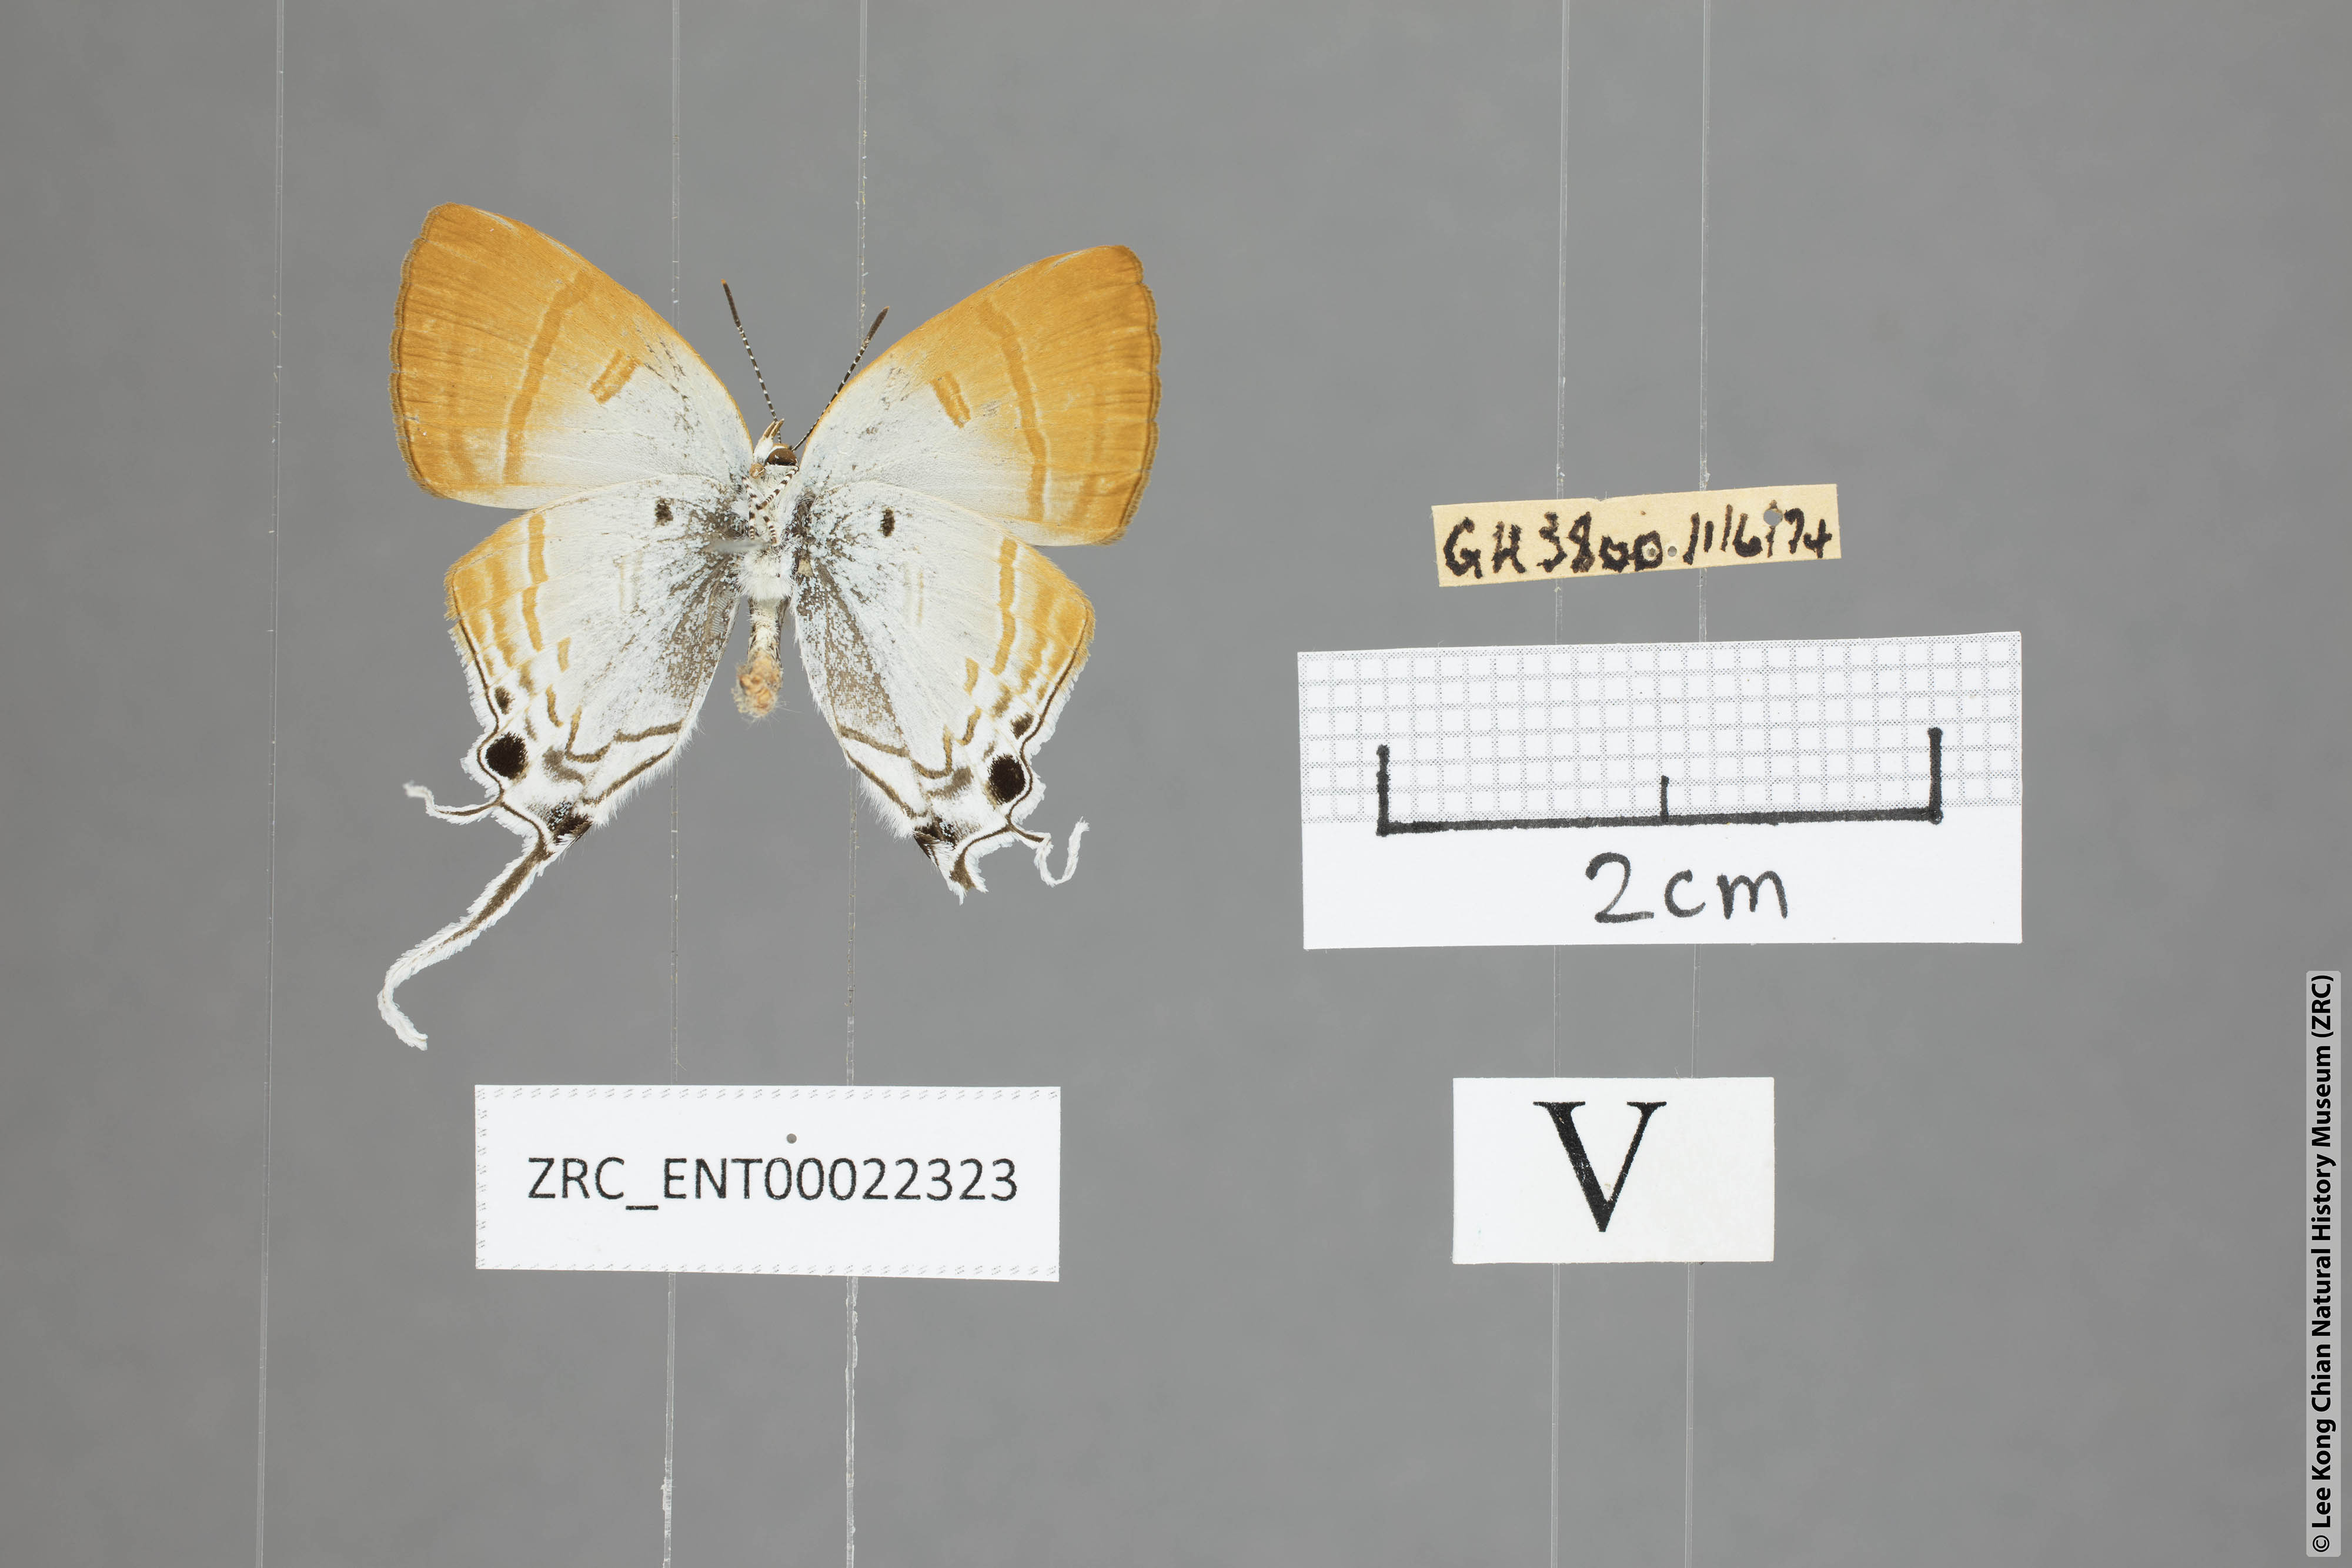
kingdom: Animalia
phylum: Arthropoda
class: Insecta
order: Lepidoptera
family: Lycaenidae
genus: Zeltus
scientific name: Zeltus amasa
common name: Fluffy tit
